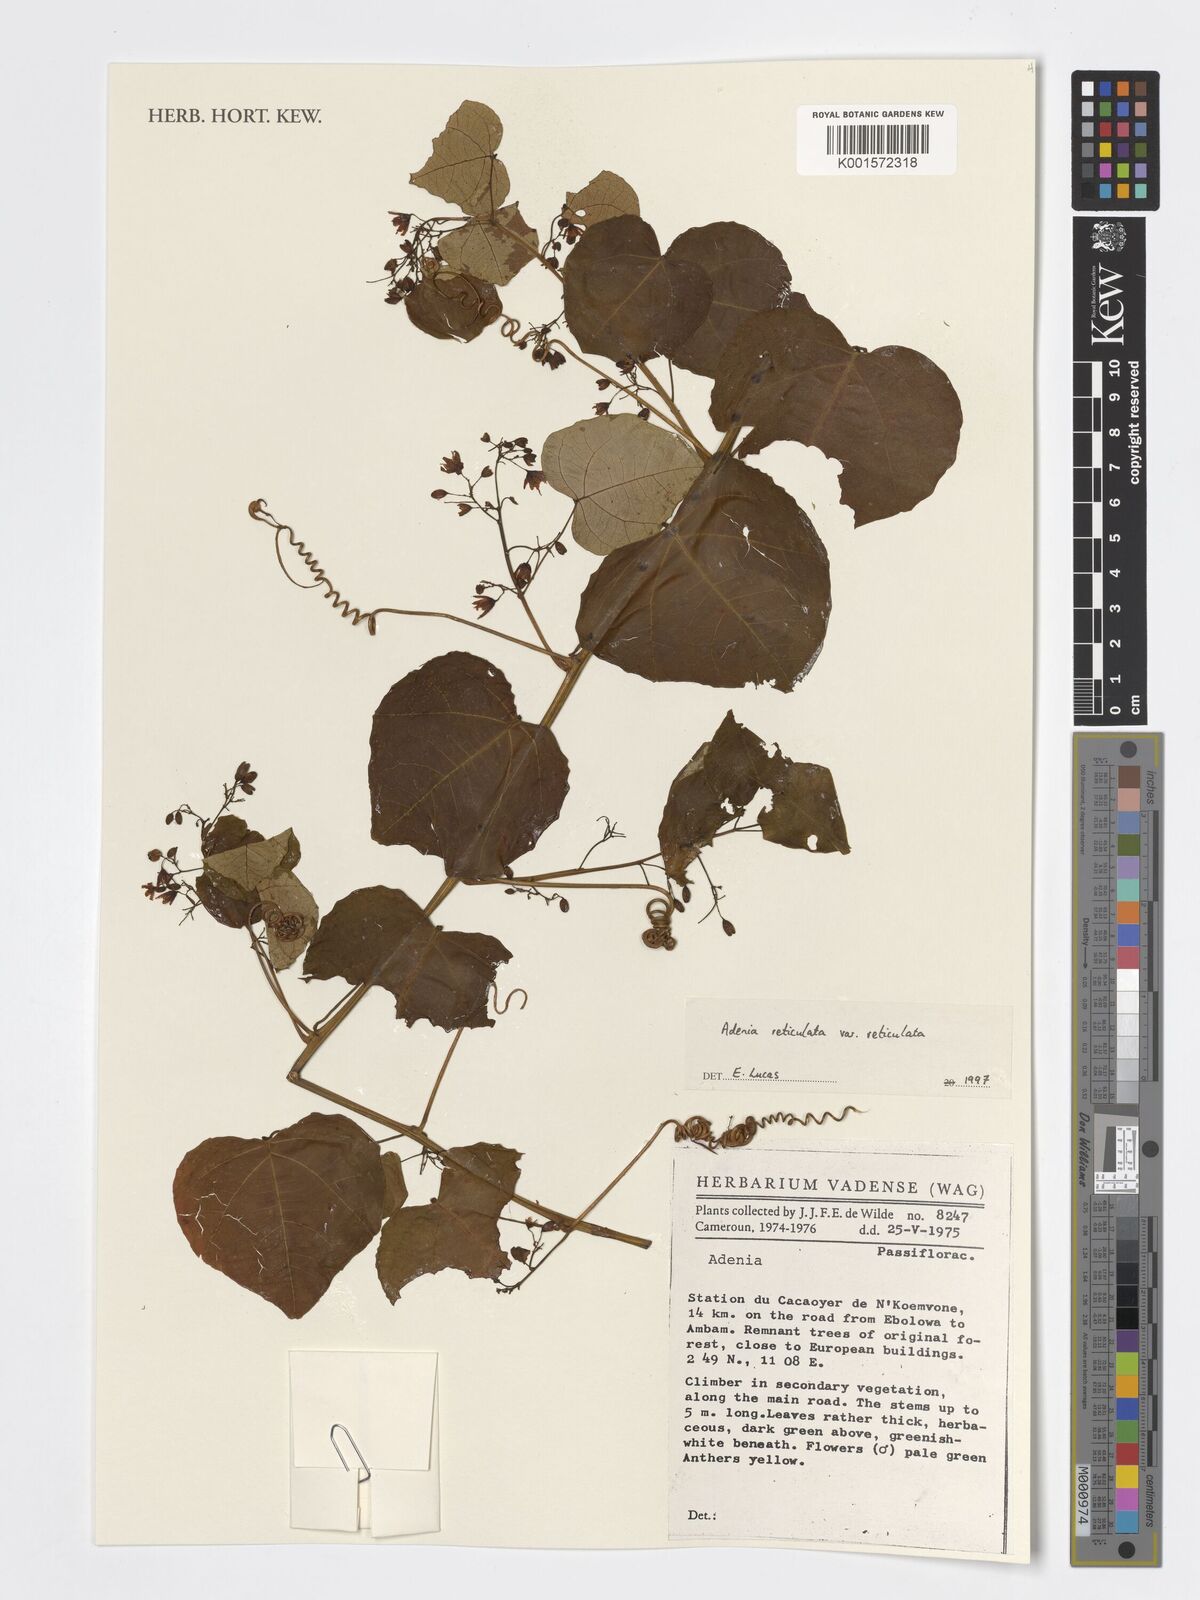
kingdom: Plantae
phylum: Tracheophyta
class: Magnoliopsida
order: Malpighiales
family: Passifloraceae
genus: Adenia
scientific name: Adenia cissampeloides
